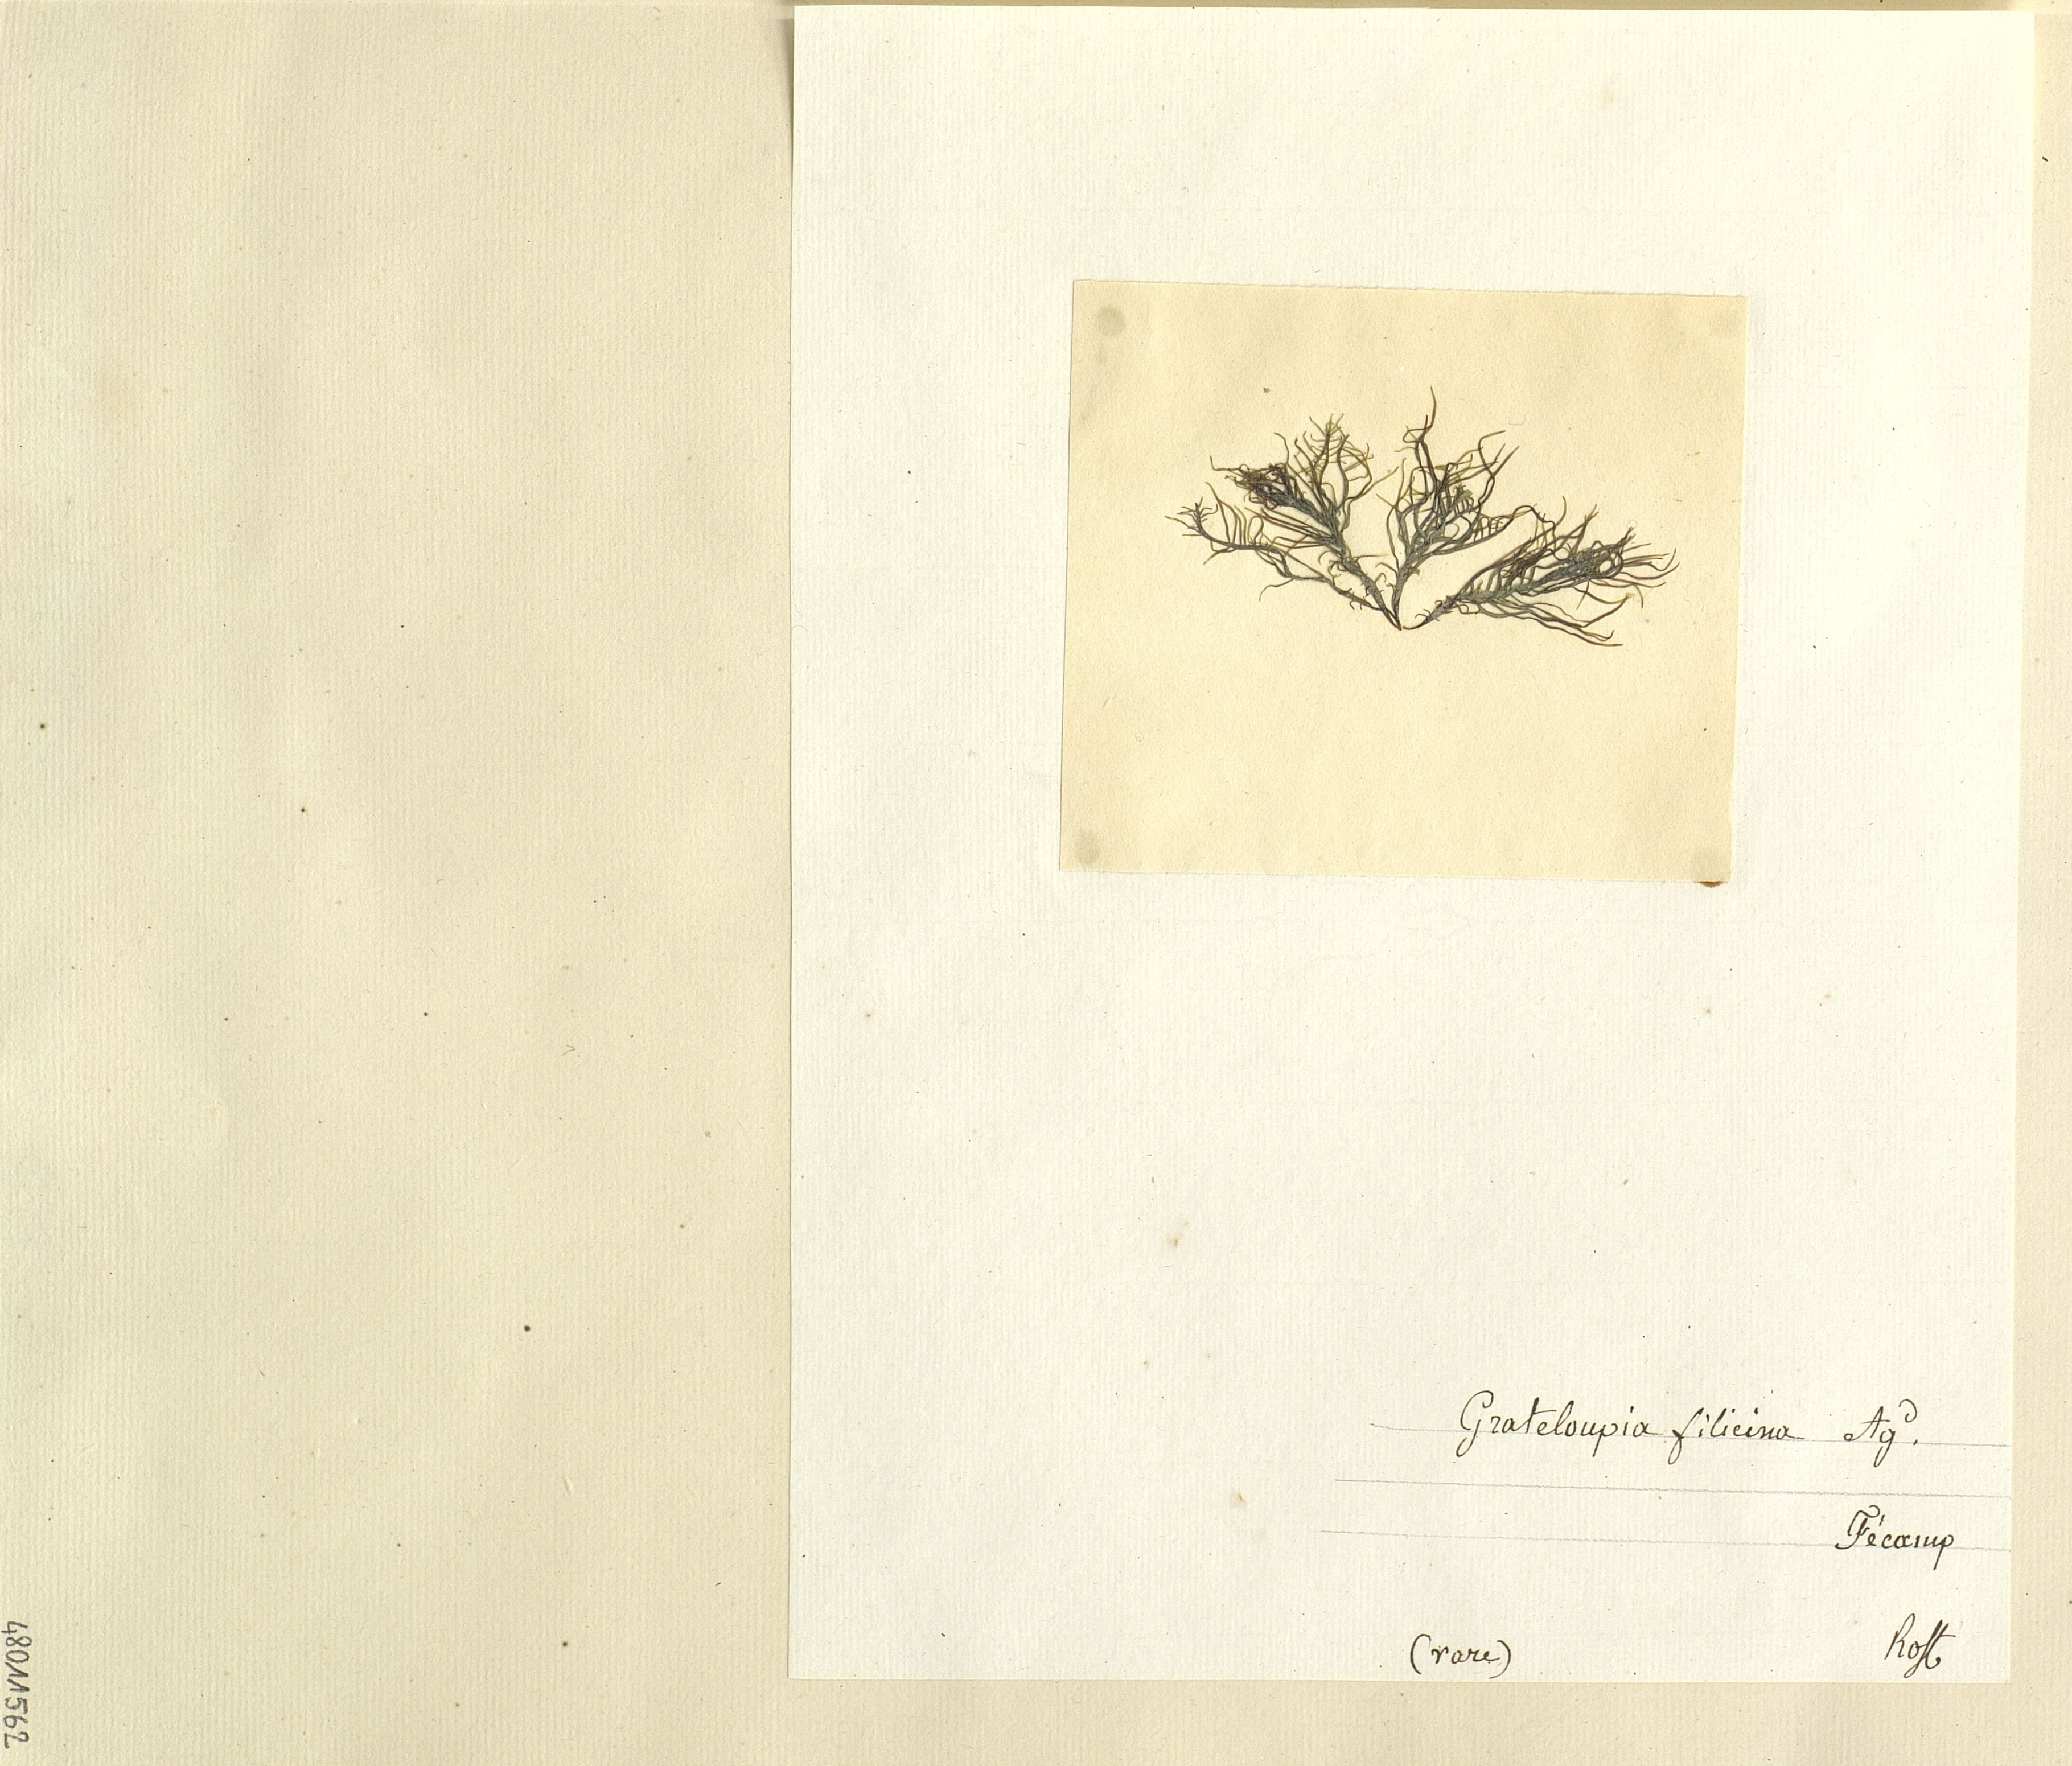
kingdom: Plantae
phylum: Rhodophyta
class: Florideophyceae
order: Halymeniales
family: Halymeniaceae
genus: Grateloupia
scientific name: Grateloupia filicina
